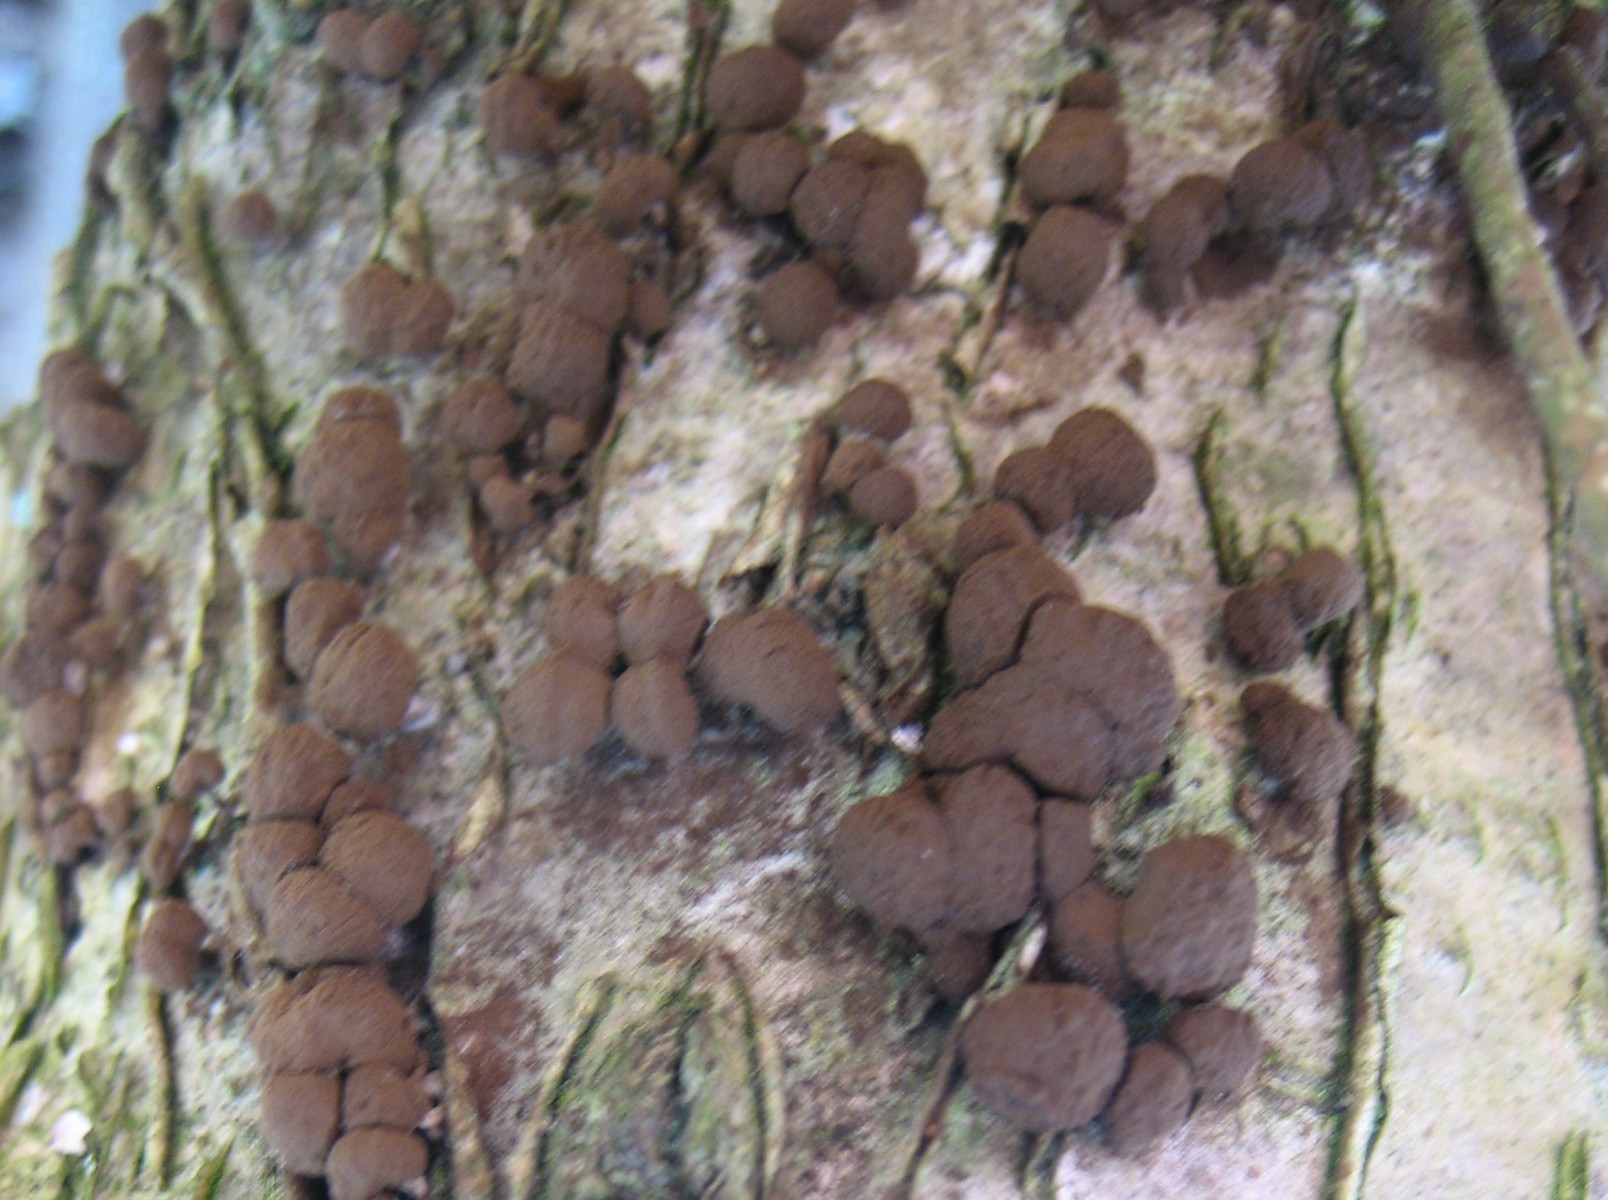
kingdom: Fungi
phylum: Basidiomycota
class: Atractiellomycetes
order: Atractiellales
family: Phleogenaceae
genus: Phleogena
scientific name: Phleogena faginea
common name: pudderkølle
